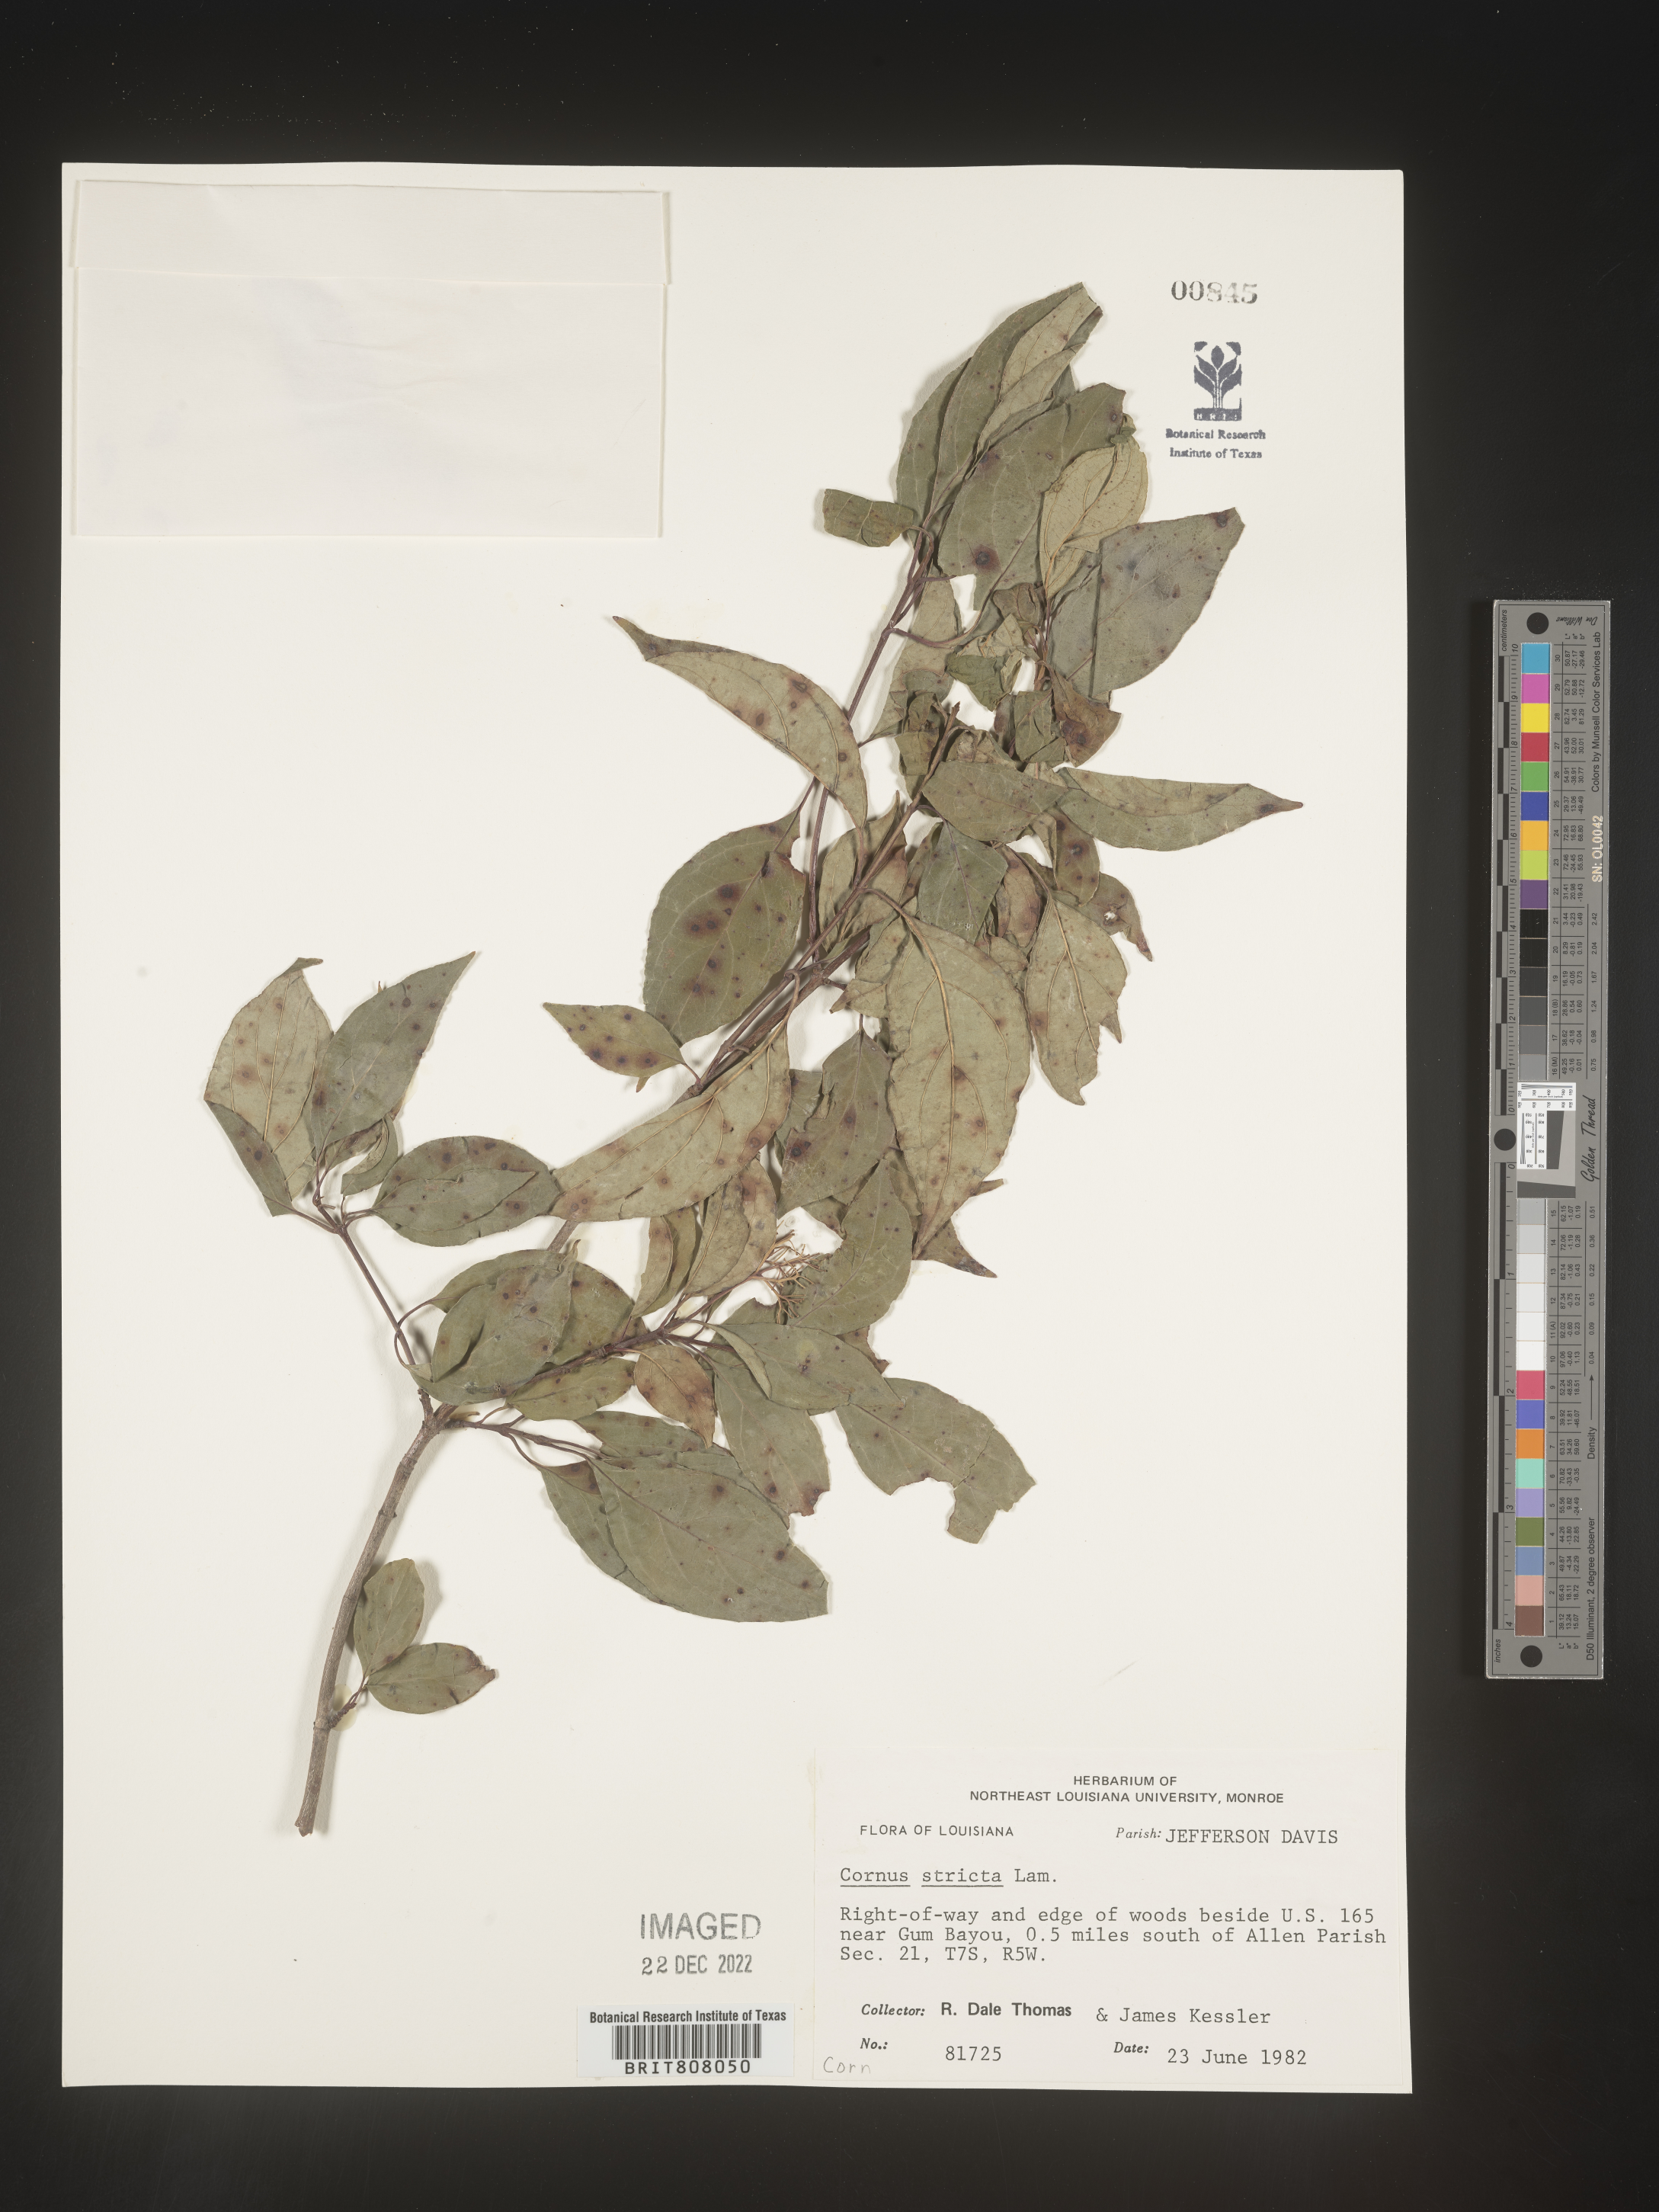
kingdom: Plantae
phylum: Tracheophyta
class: Magnoliopsida
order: Cornales
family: Cornaceae
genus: Cornus
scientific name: Cornus foemina
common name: Swamp dogwood
